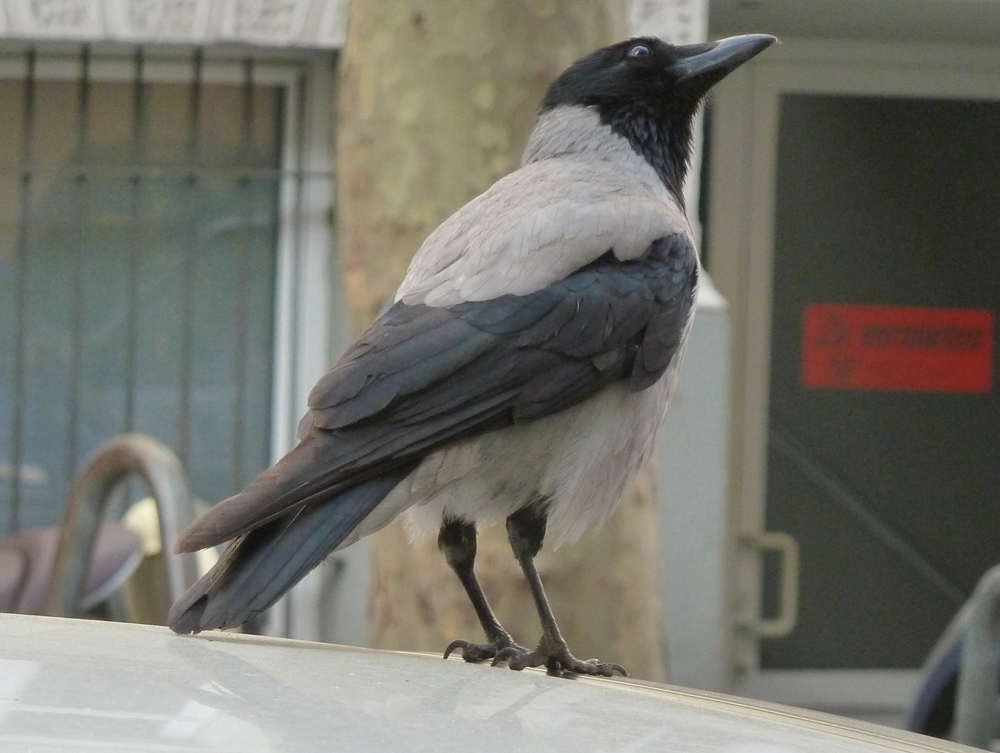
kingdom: Animalia
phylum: Chordata
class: Aves
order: Passeriformes
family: Corvidae
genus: Corvus
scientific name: Corvus cornix
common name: Hooded crow
